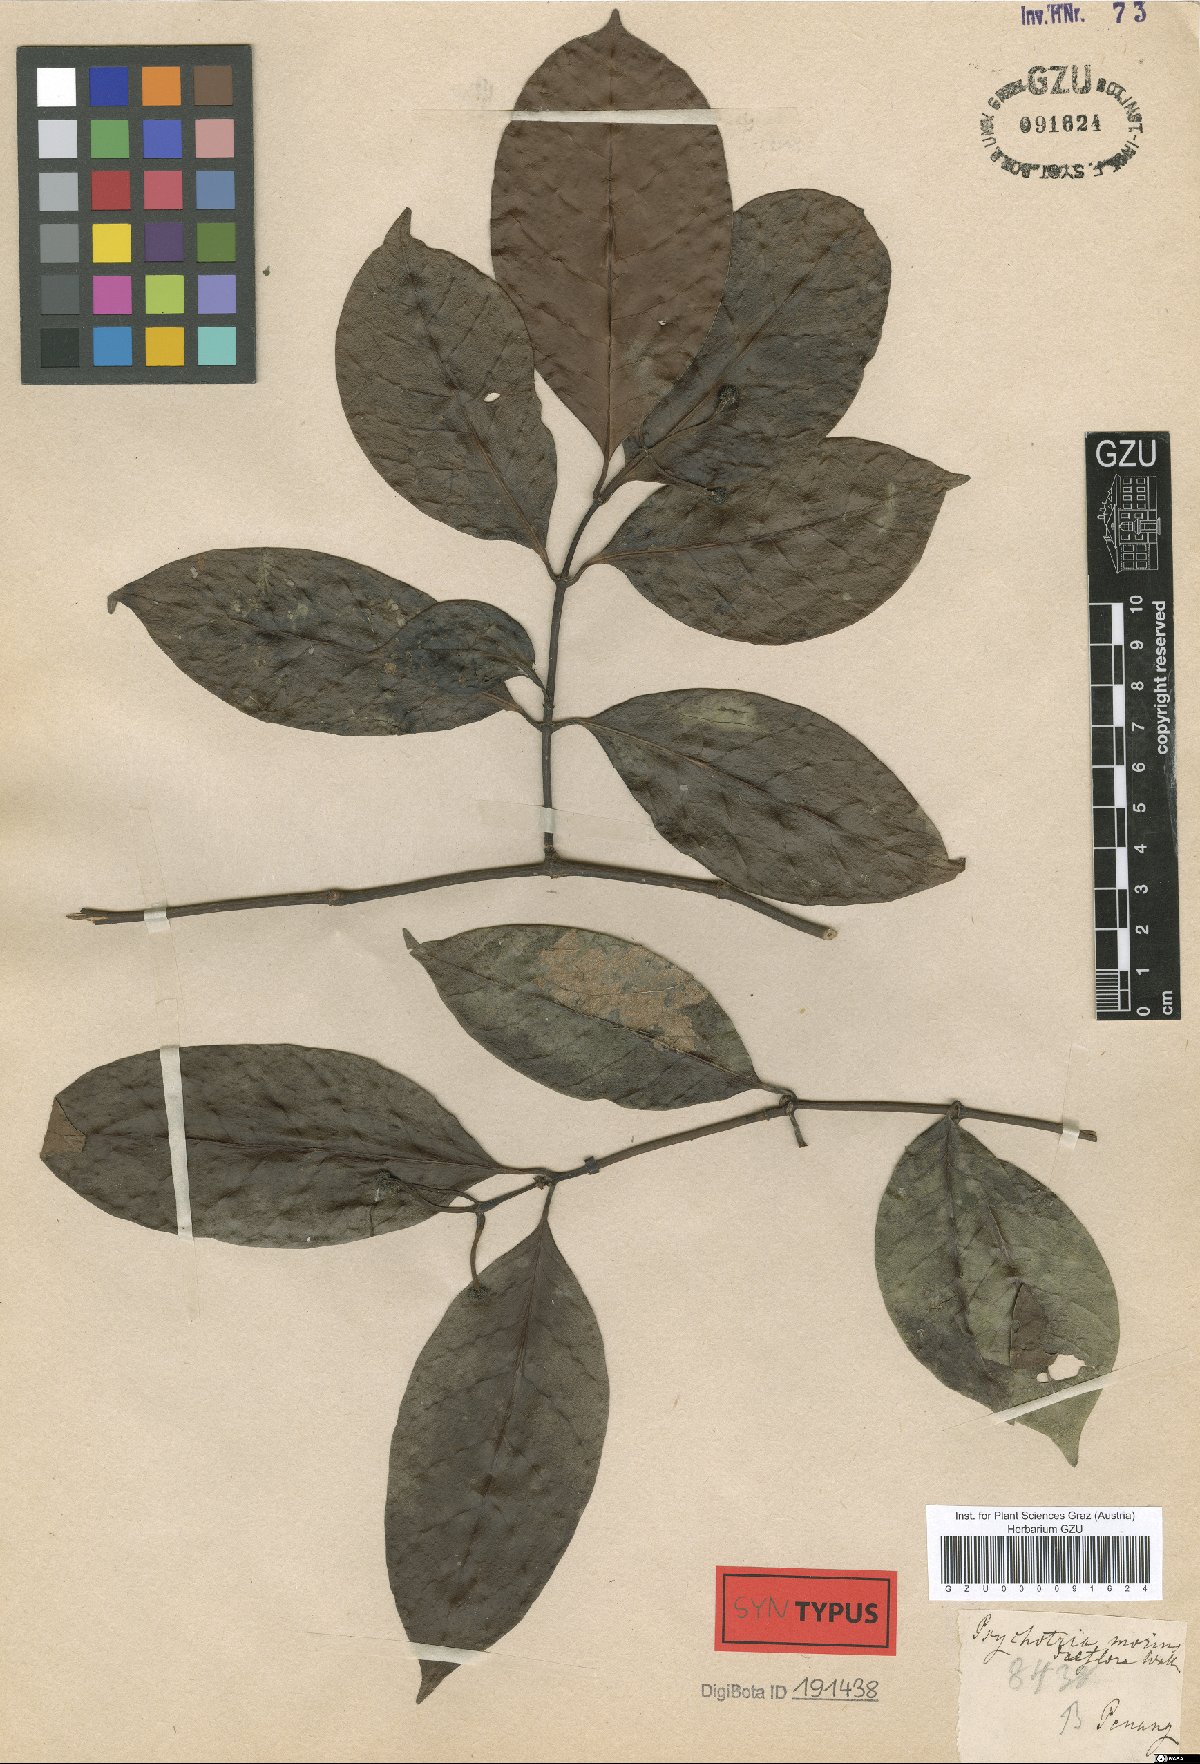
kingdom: Plantae
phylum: Tracheophyta
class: Magnoliopsida
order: Gentianales
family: Rubiaceae
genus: Psychotria
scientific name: Psychotria morindiflora
